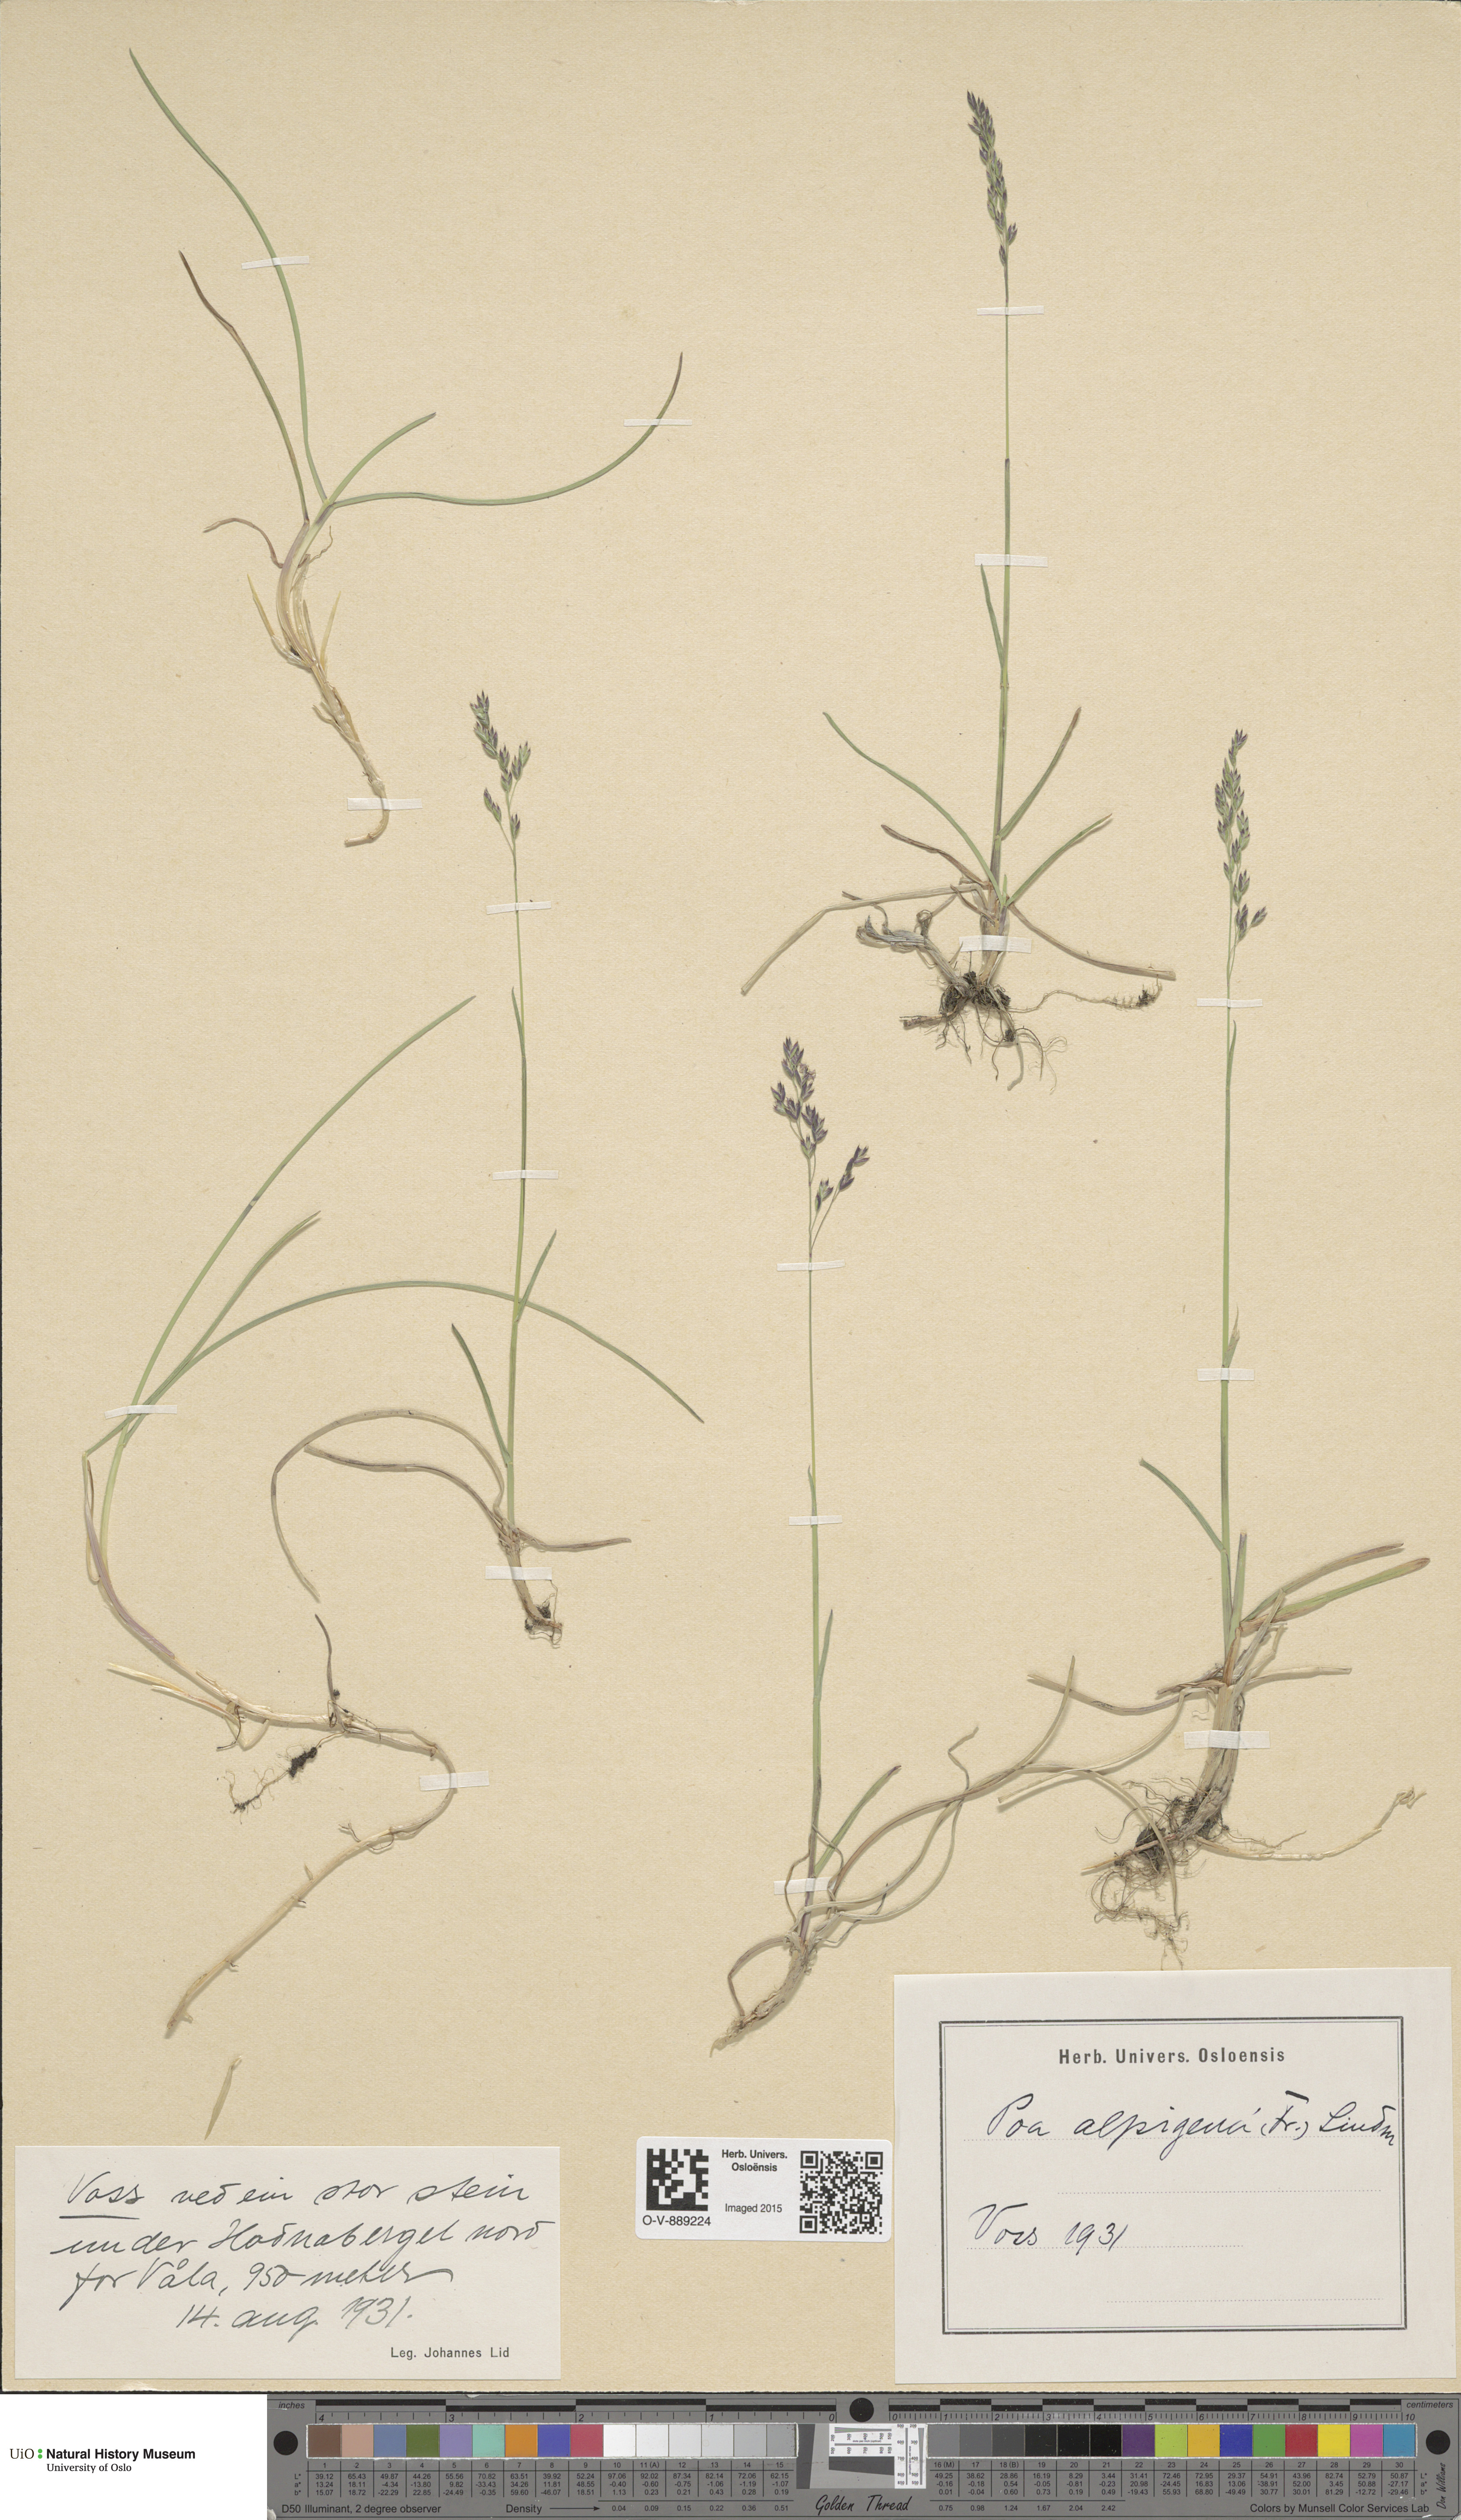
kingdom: Plantae
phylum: Tracheophyta
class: Liliopsida
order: Poales
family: Poaceae
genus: Poa
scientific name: Poa alpigena
